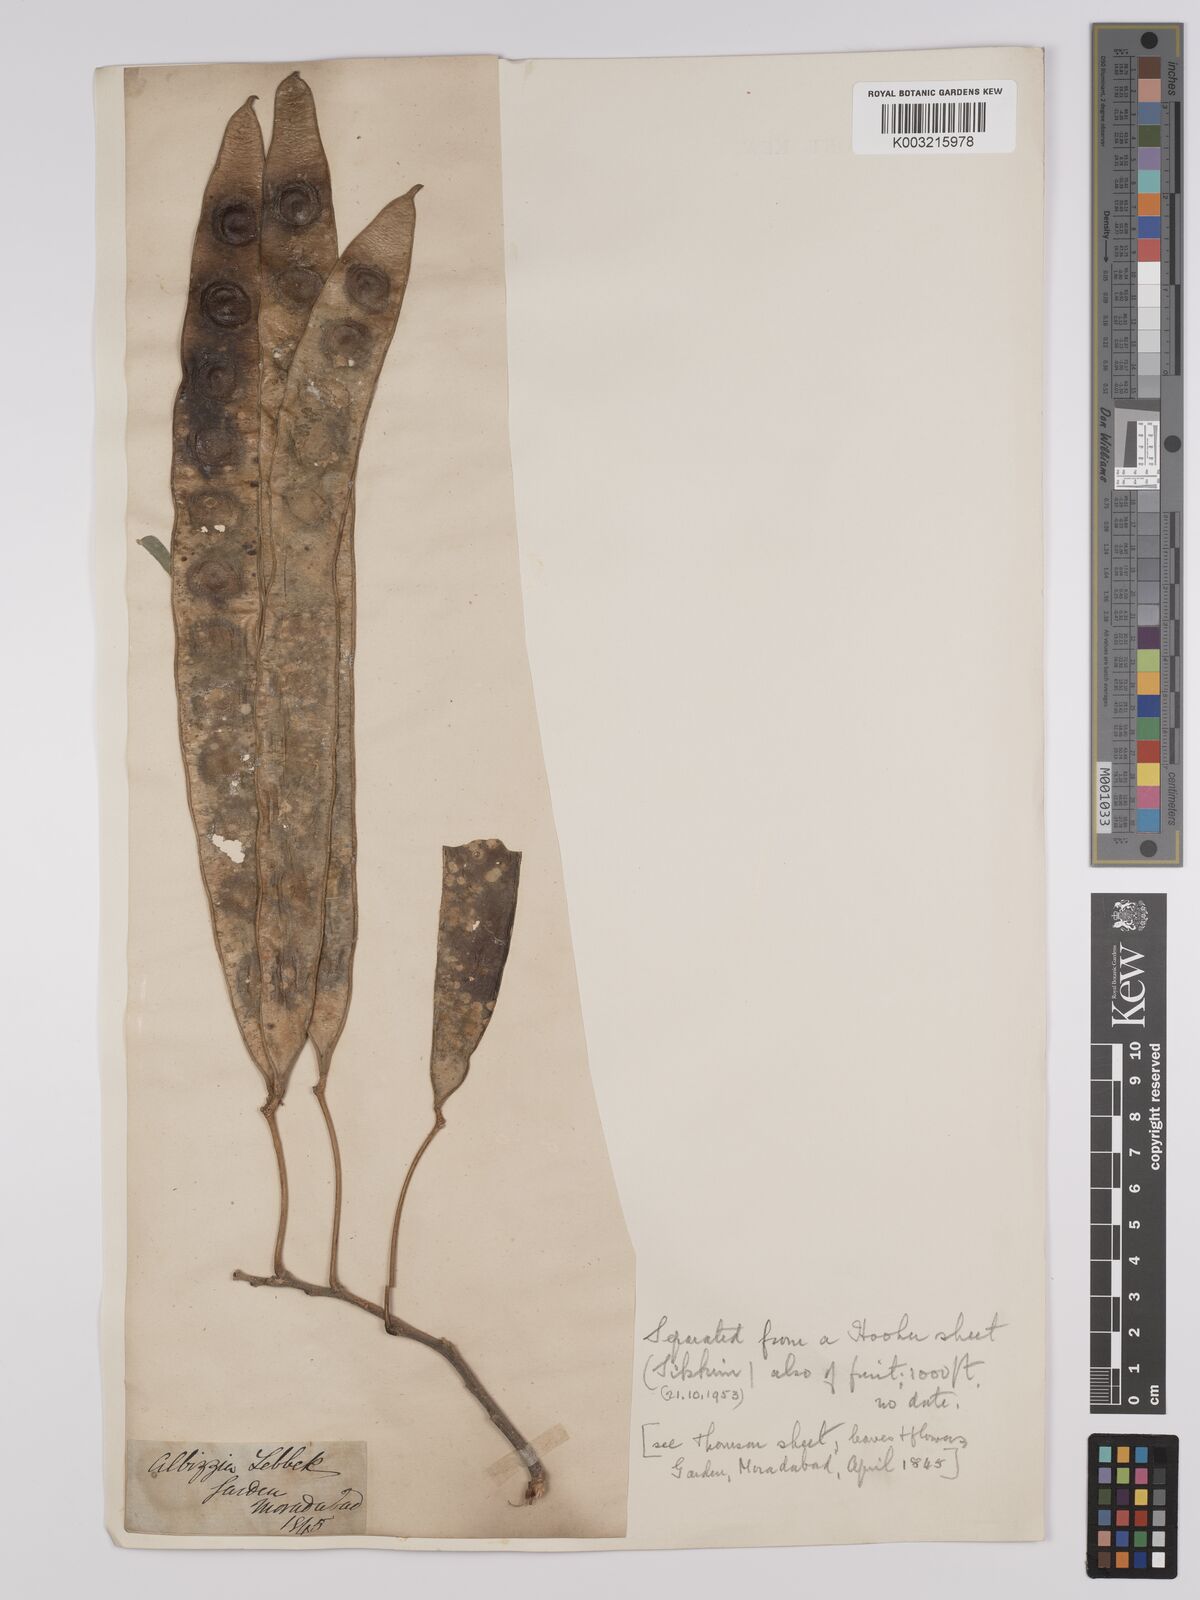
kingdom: Plantae
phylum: Tracheophyta
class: Magnoliopsida
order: Fabales
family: Fabaceae
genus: Albizia
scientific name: Albizia lebbeck
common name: Woman's tongue
